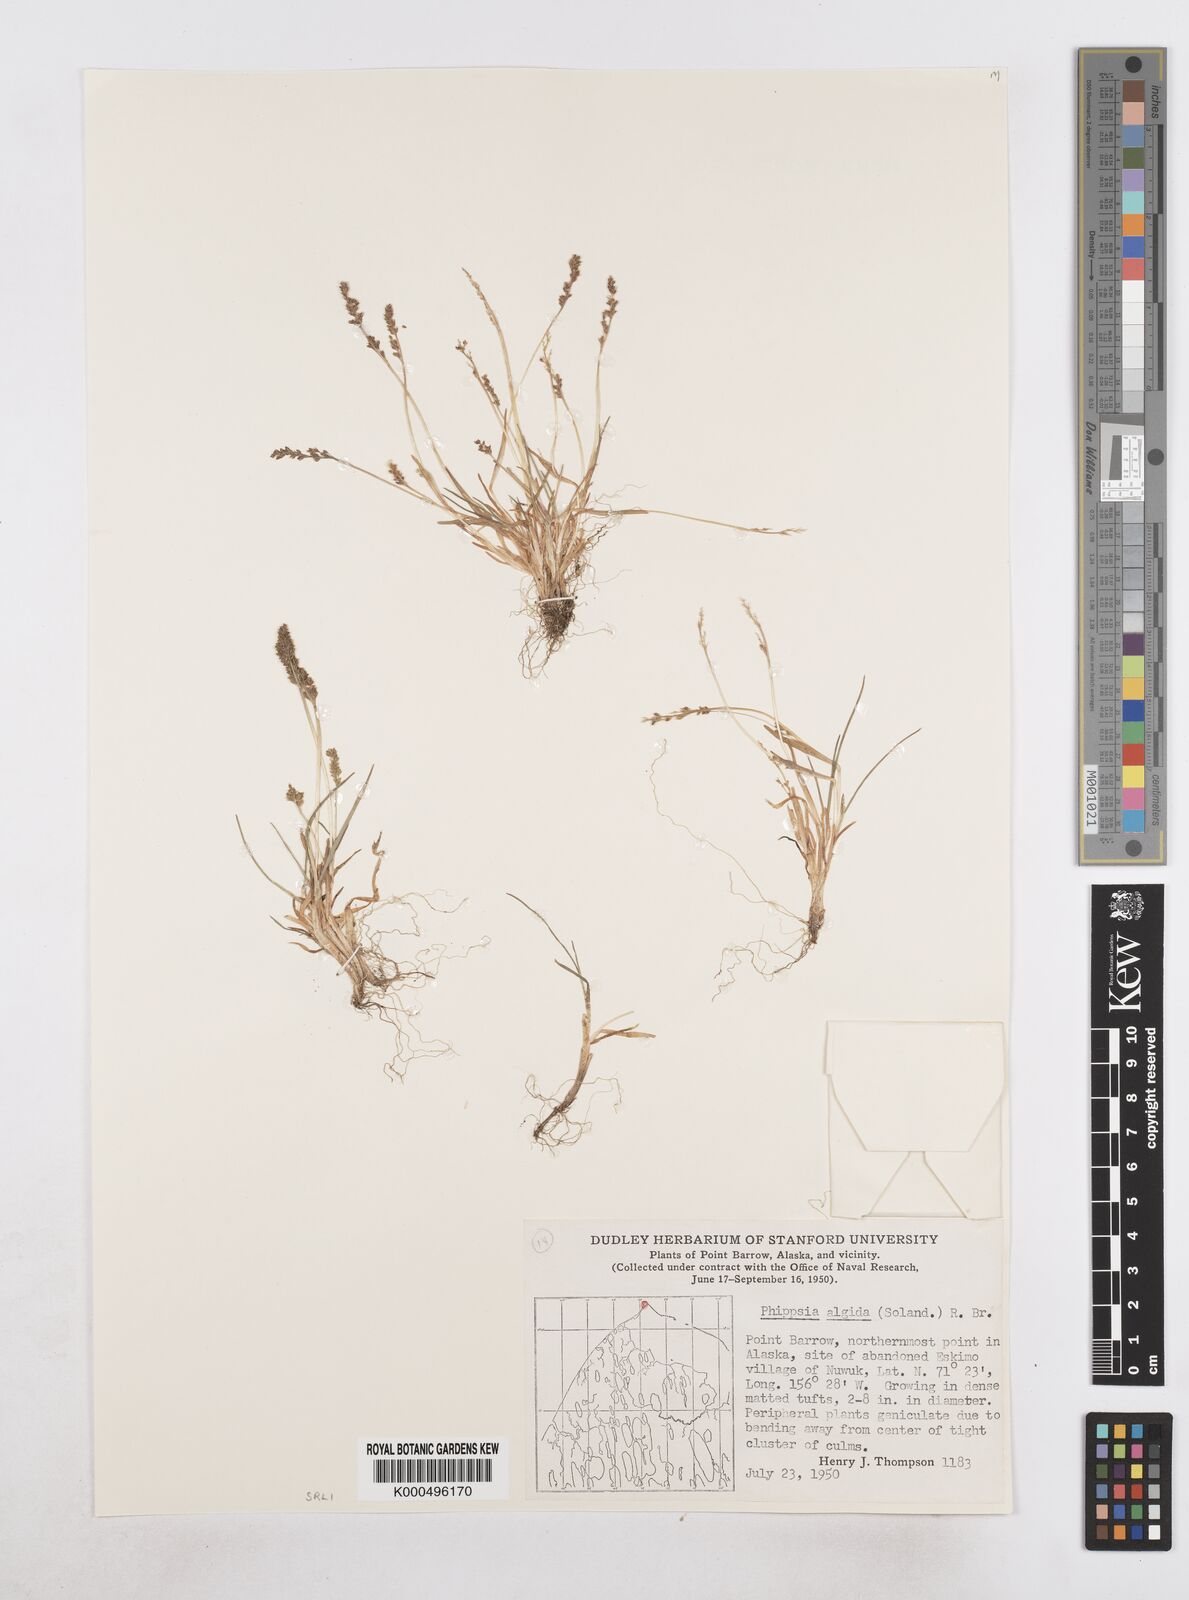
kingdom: Plantae
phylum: Tracheophyta
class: Liliopsida
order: Poales
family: Poaceae
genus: Phippsia
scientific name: Phippsia algida
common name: Ice grass
